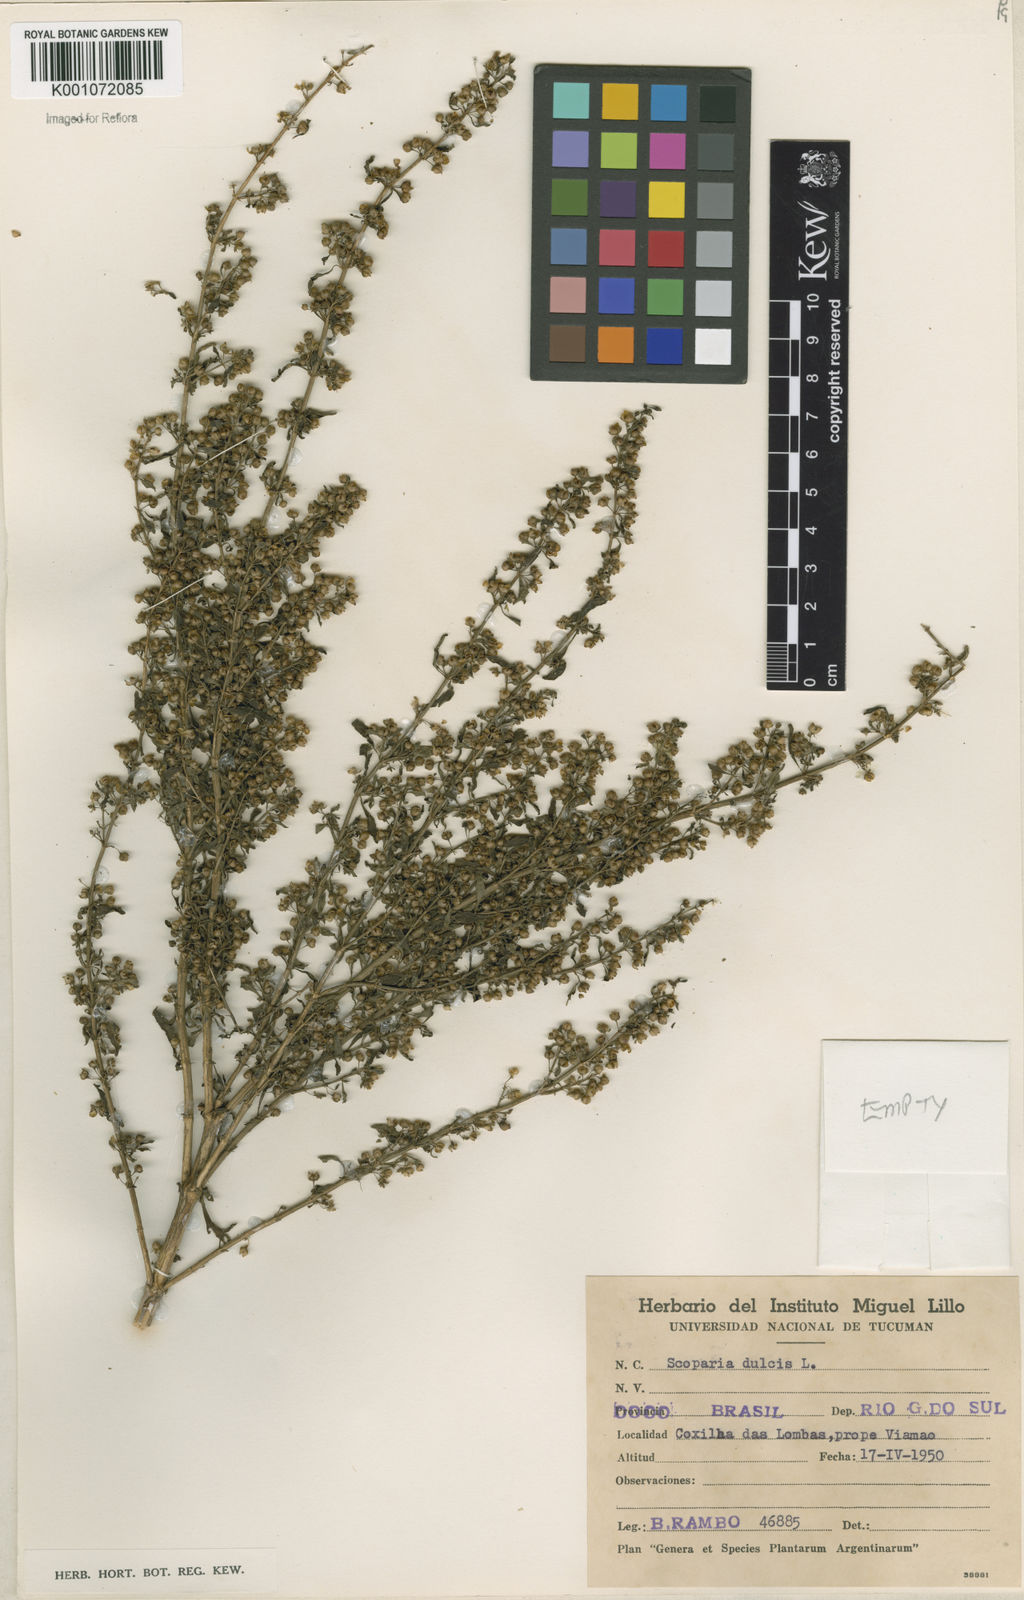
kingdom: Plantae
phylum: Tracheophyta
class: Magnoliopsida
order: Lamiales
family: Plantaginaceae
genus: Scoparia
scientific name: Scoparia dulcis
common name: Scoparia-weed
